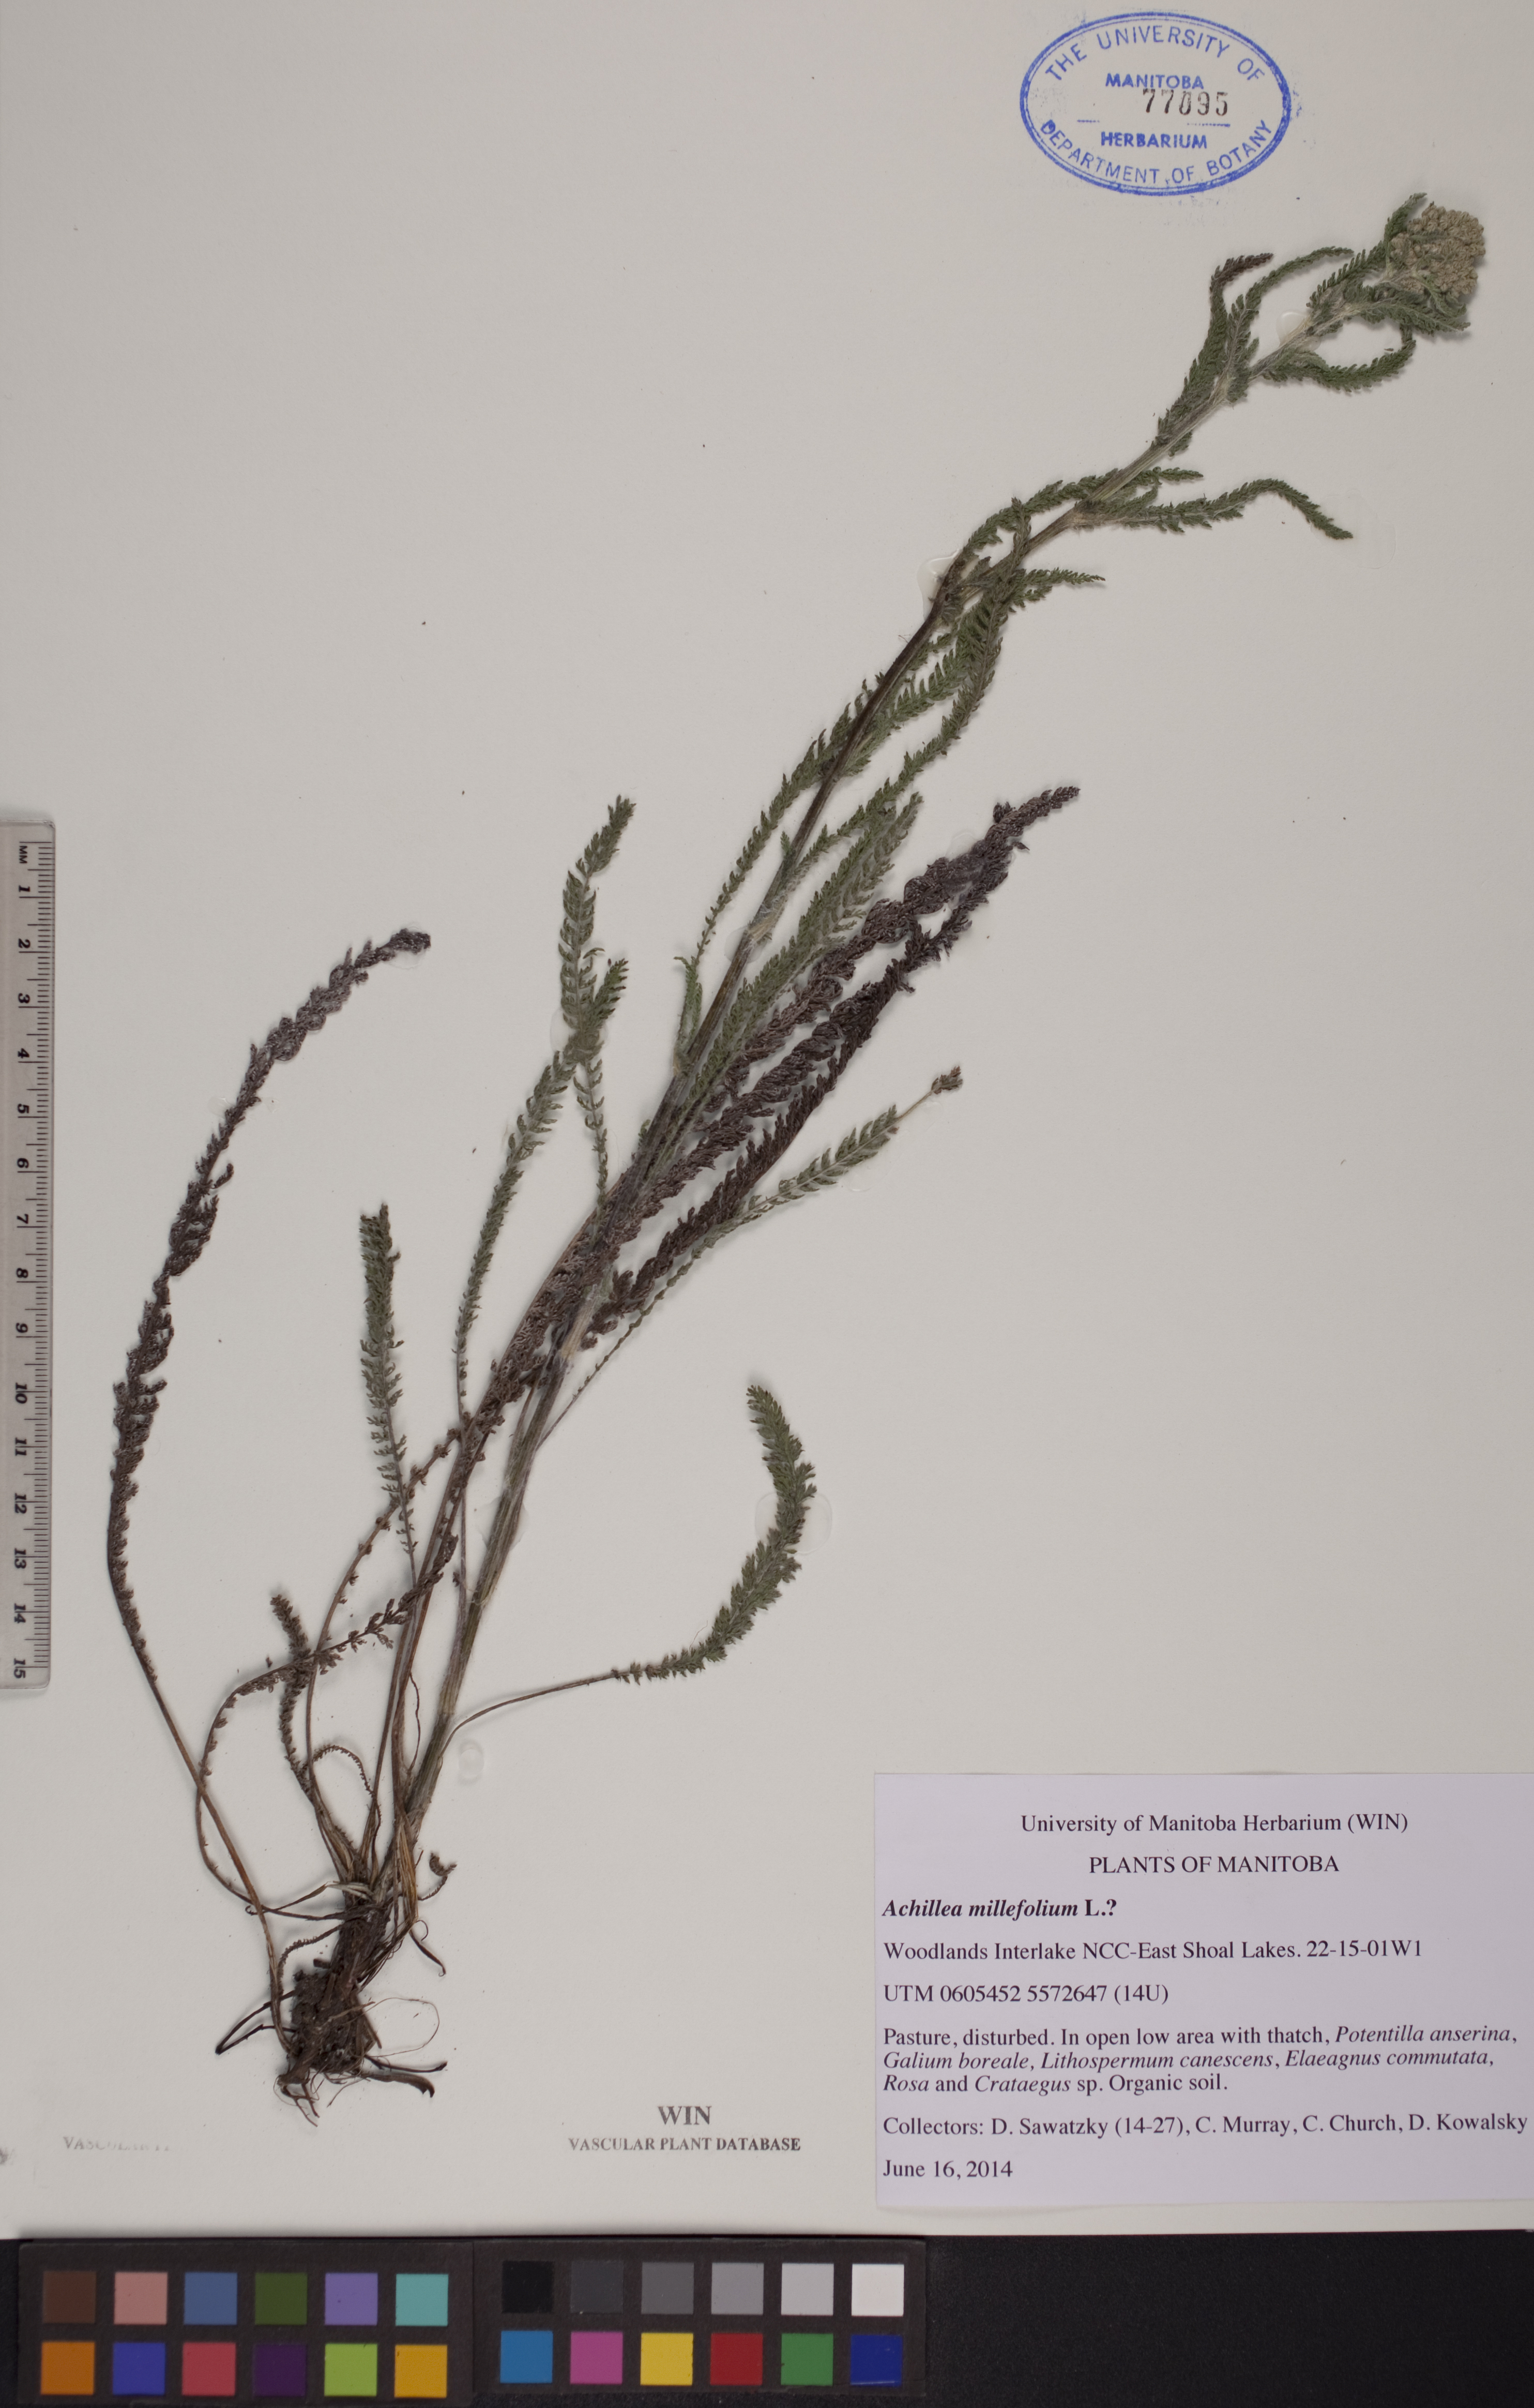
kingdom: Plantae
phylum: Tracheophyta
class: Magnoliopsida
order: Asterales
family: Asteraceae
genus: Achillea
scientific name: Achillea millefolium
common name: Yarrow
